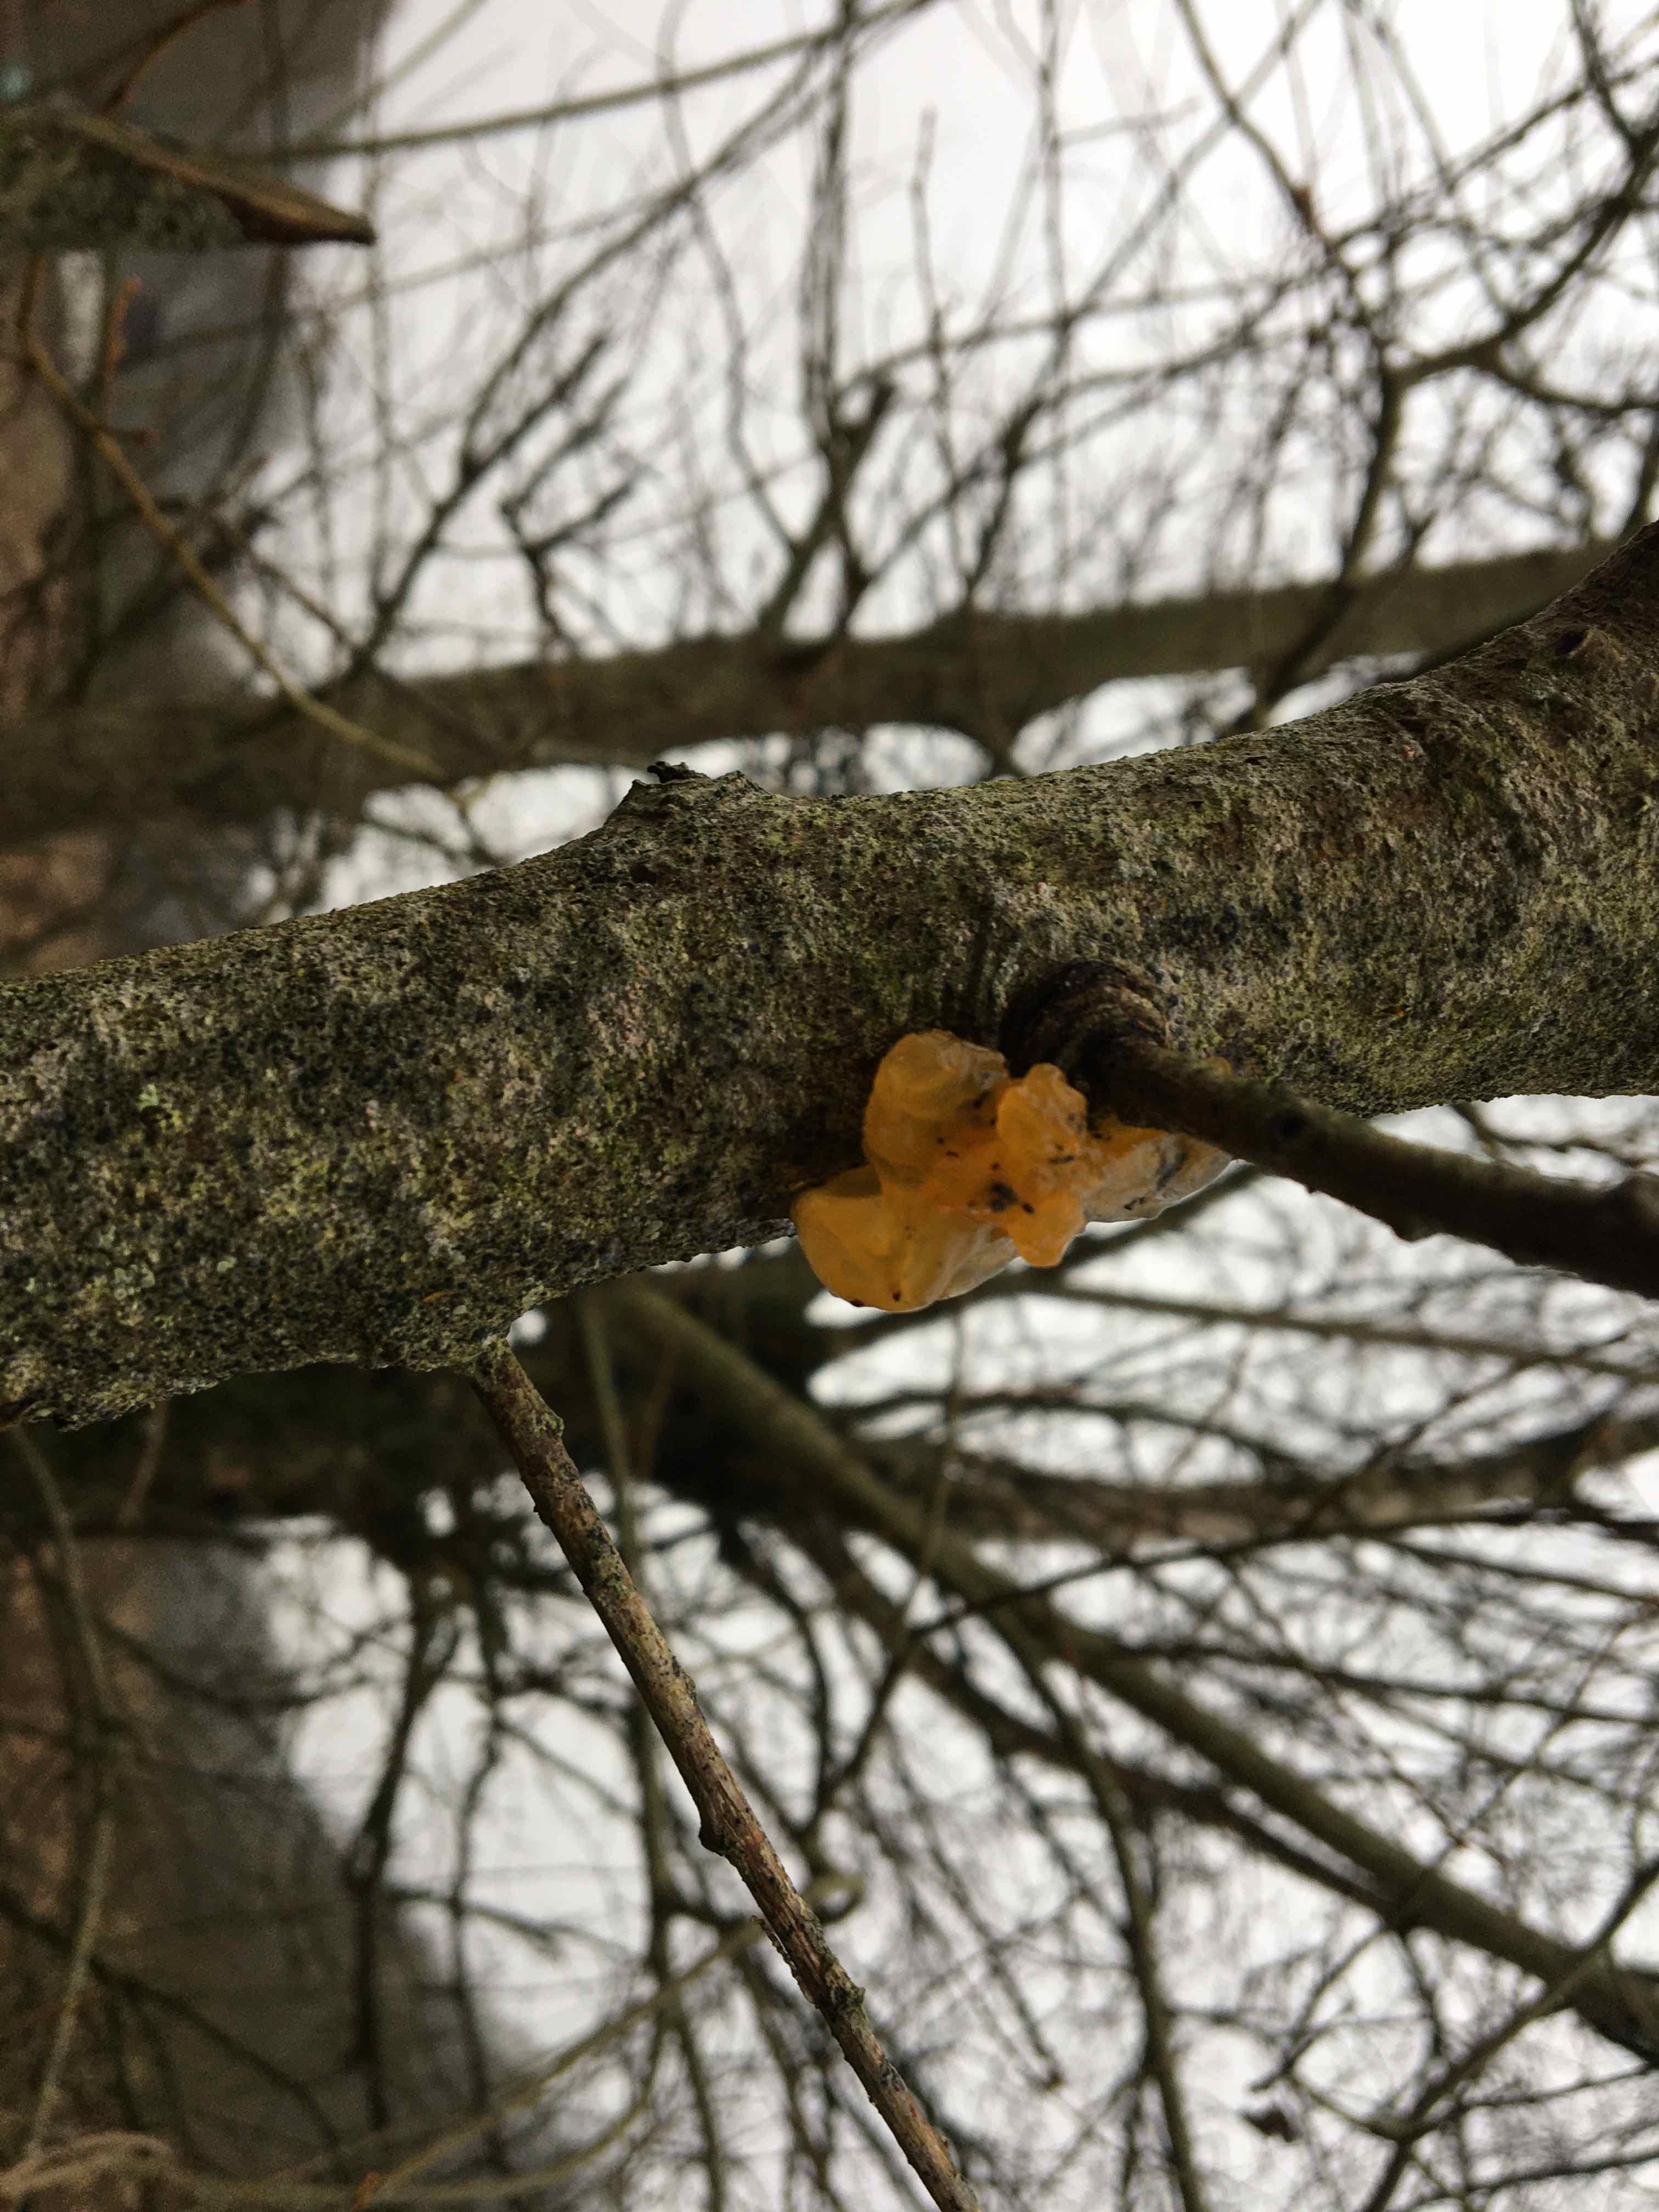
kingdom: Fungi
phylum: Basidiomycota
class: Tremellomycetes
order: Tremellales
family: Tremellaceae
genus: Tremella
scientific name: Tremella mesenterica
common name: gul bævresvamp
